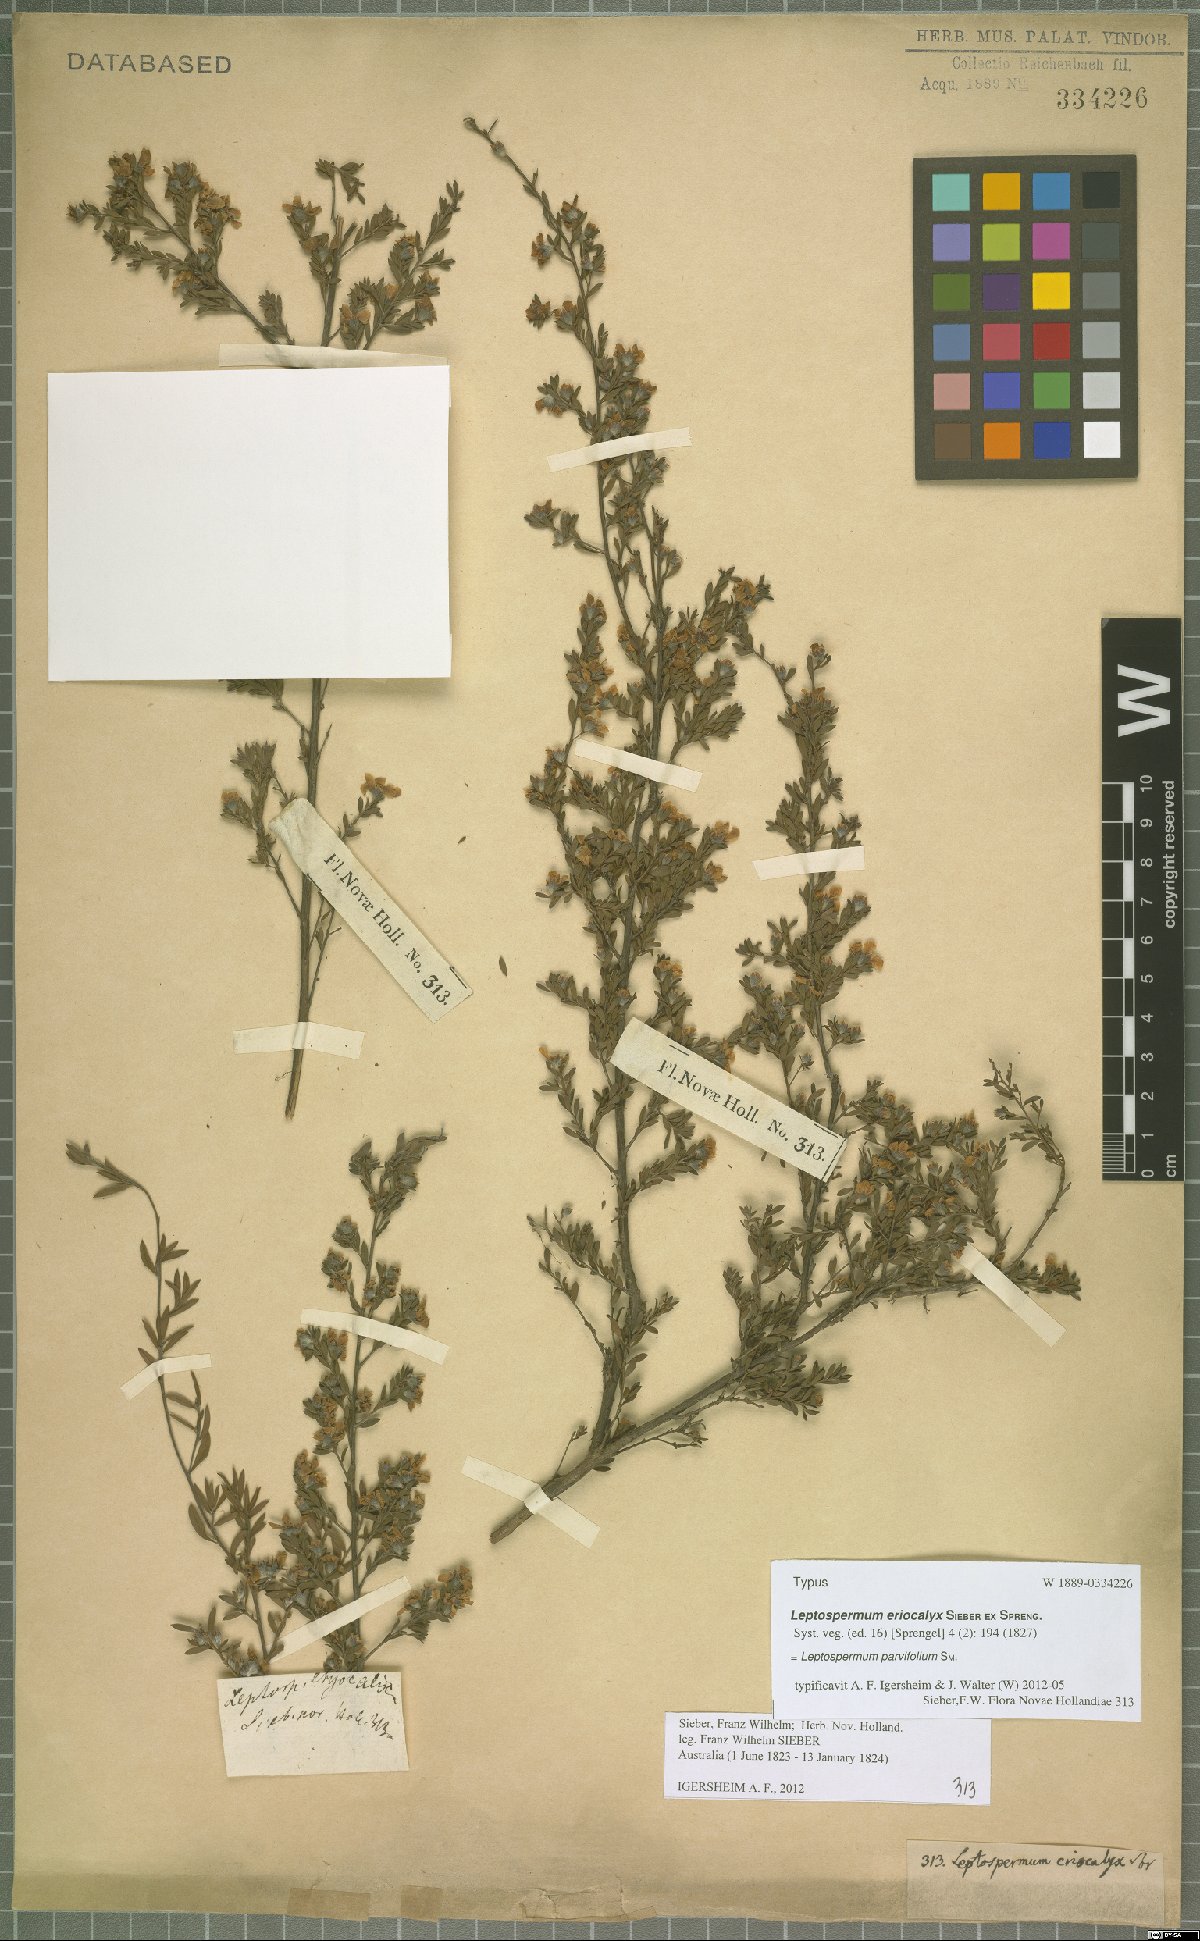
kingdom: Plantae
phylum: Tracheophyta
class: Magnoliopsida
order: Myrtales
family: Myrtaceae
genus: Leptospermum
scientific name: Leptospermum parvifolium
